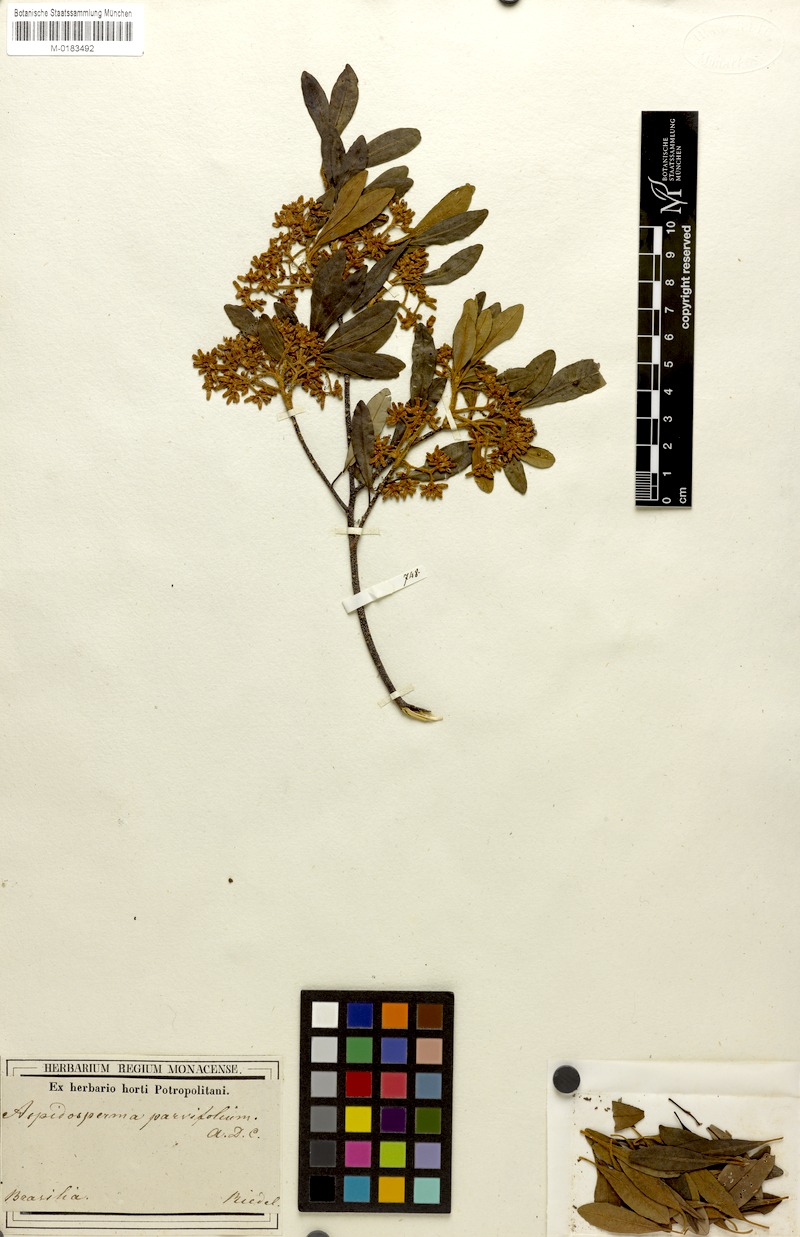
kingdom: Plantae
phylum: Tracheophyta
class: Magnoliopsida
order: Gentianales
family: Apocynaceae
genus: Aspidosperma
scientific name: Aspidosperma parvifolium
